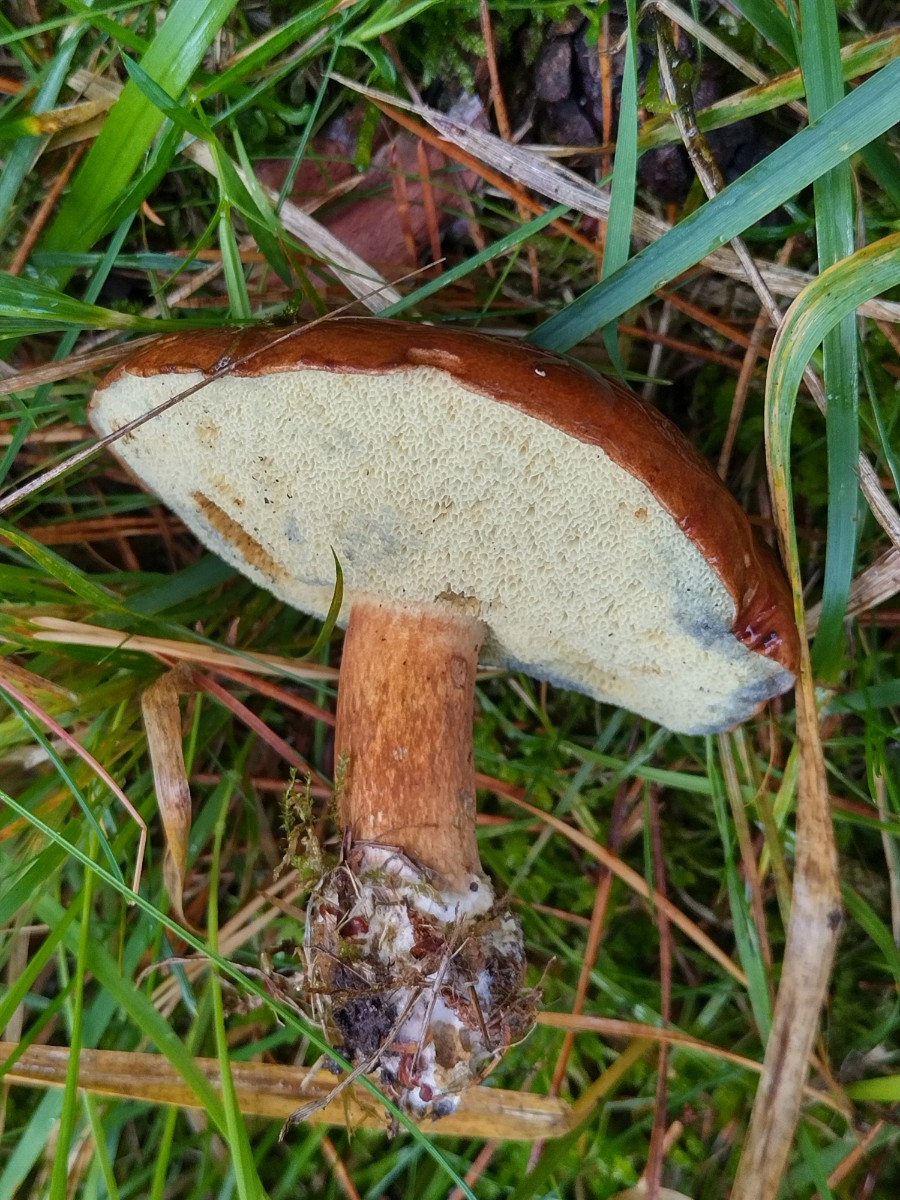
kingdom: Fungi
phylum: Basidiomycota
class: Agaricomycetes
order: Boletales
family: Boletaceae
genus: Imleria
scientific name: Imleria badia
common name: brunstokket rørhat
